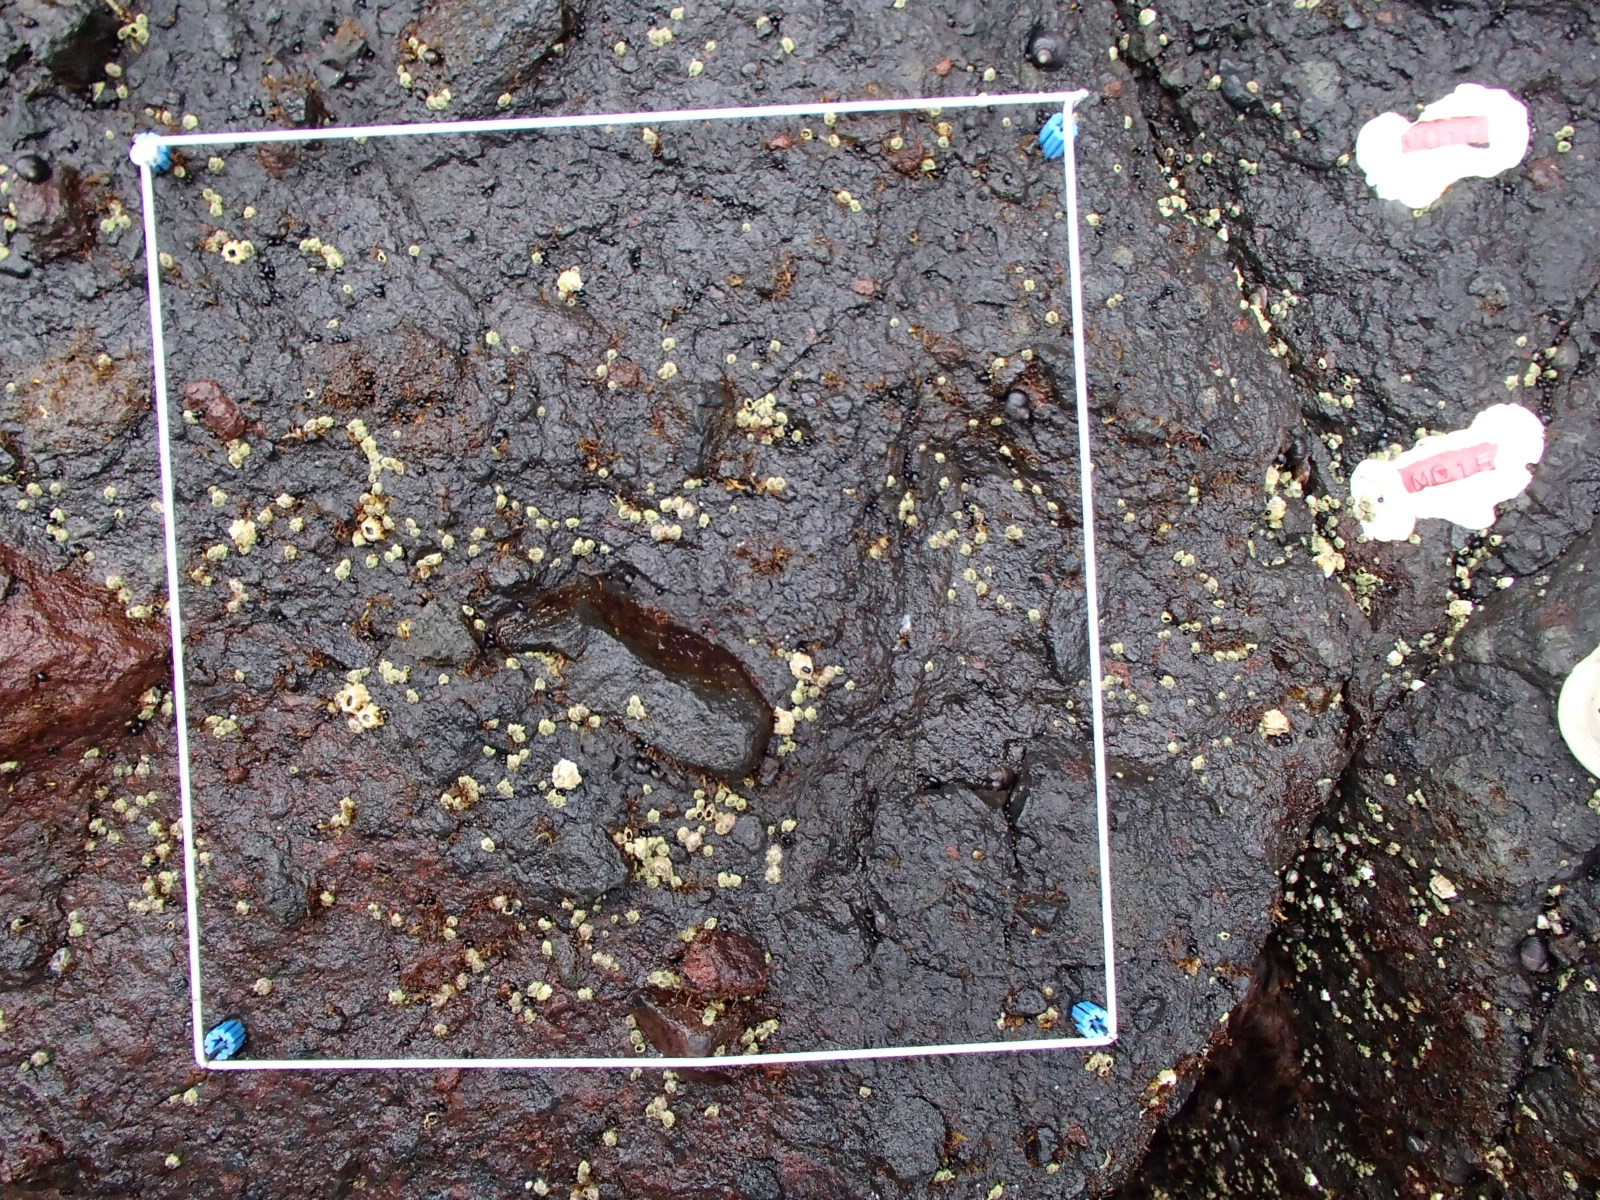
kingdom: Animalia
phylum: Arthropoda
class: Maxillopoda
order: Sessilia
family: Chthamalidae
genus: Chthamalus
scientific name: Chthamalus dalli
